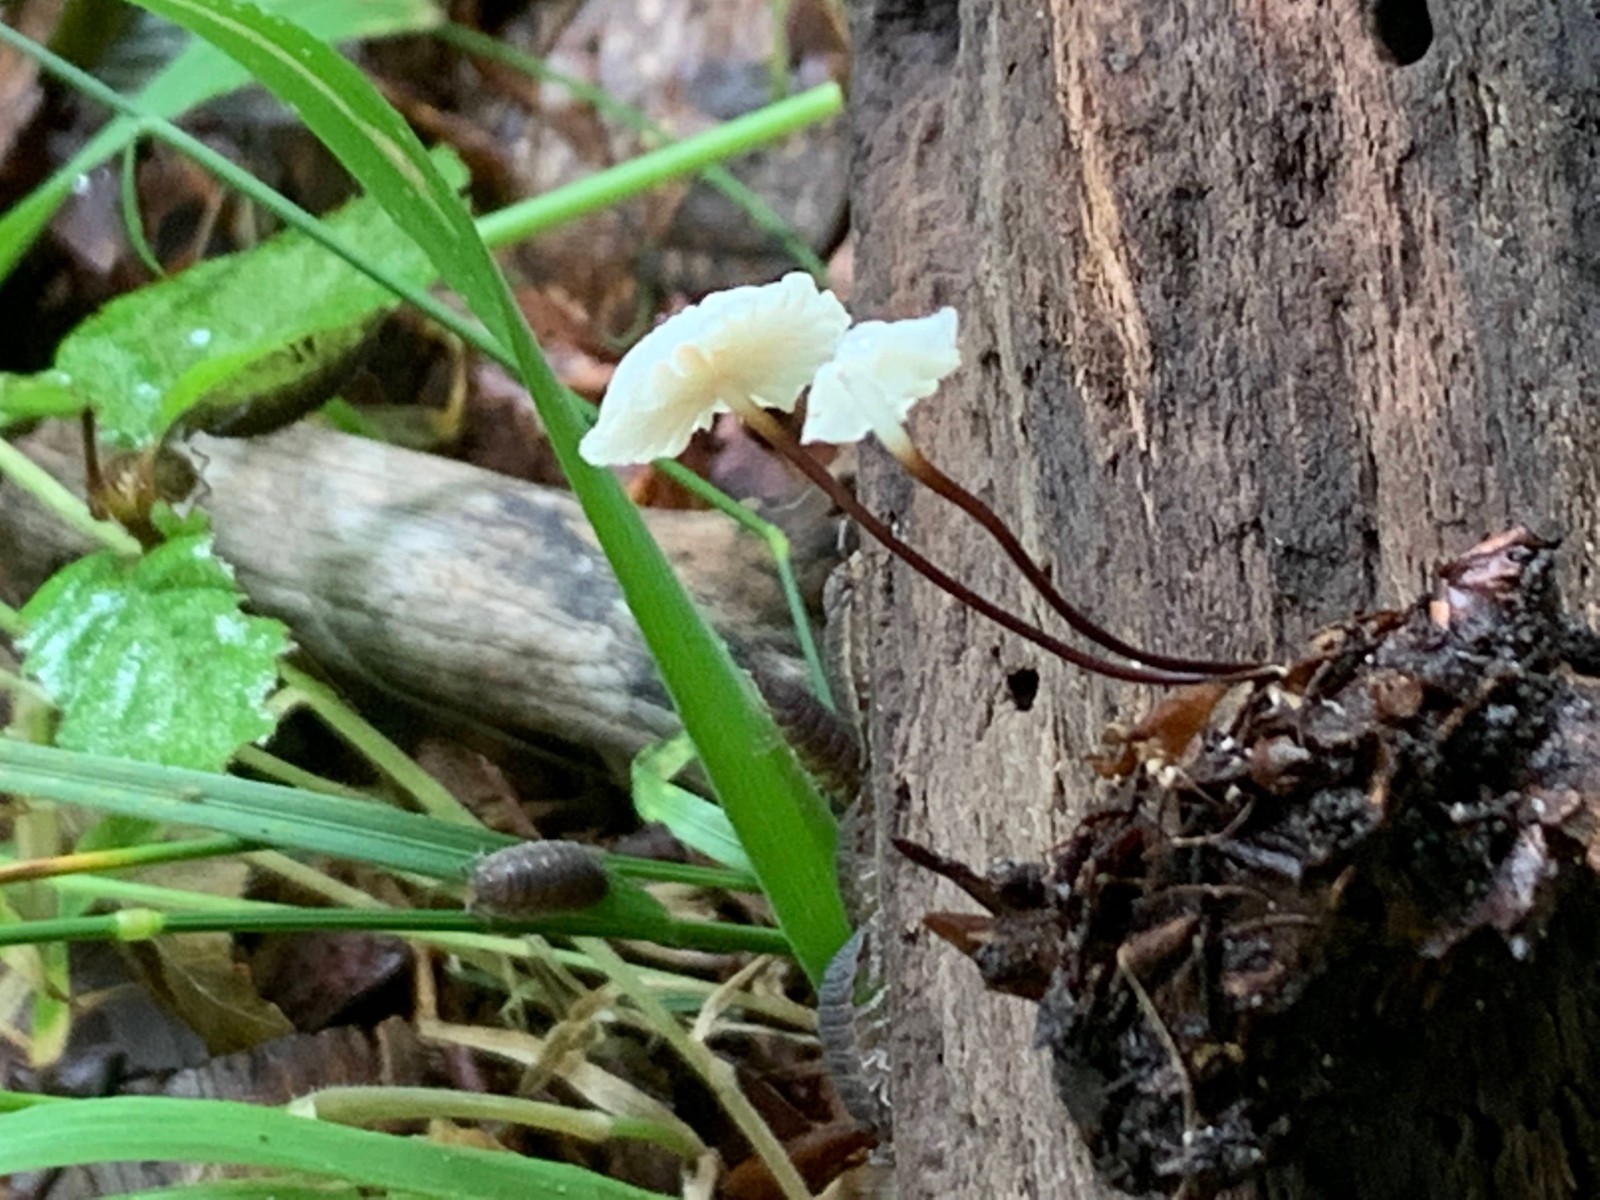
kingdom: Fungi
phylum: Basidiomycota
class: Agaricomycetes
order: Agaricales
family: Marasmiaceae
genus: Marasmius
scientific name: Marasmius rotula
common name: hjul-bruskhat
